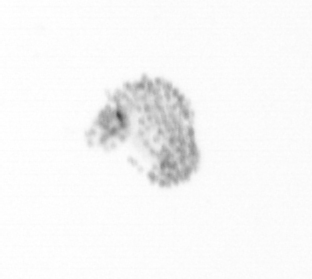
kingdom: Chromista
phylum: Ochrophyta
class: Bacillariophyceae
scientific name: Bacillariophyceae
